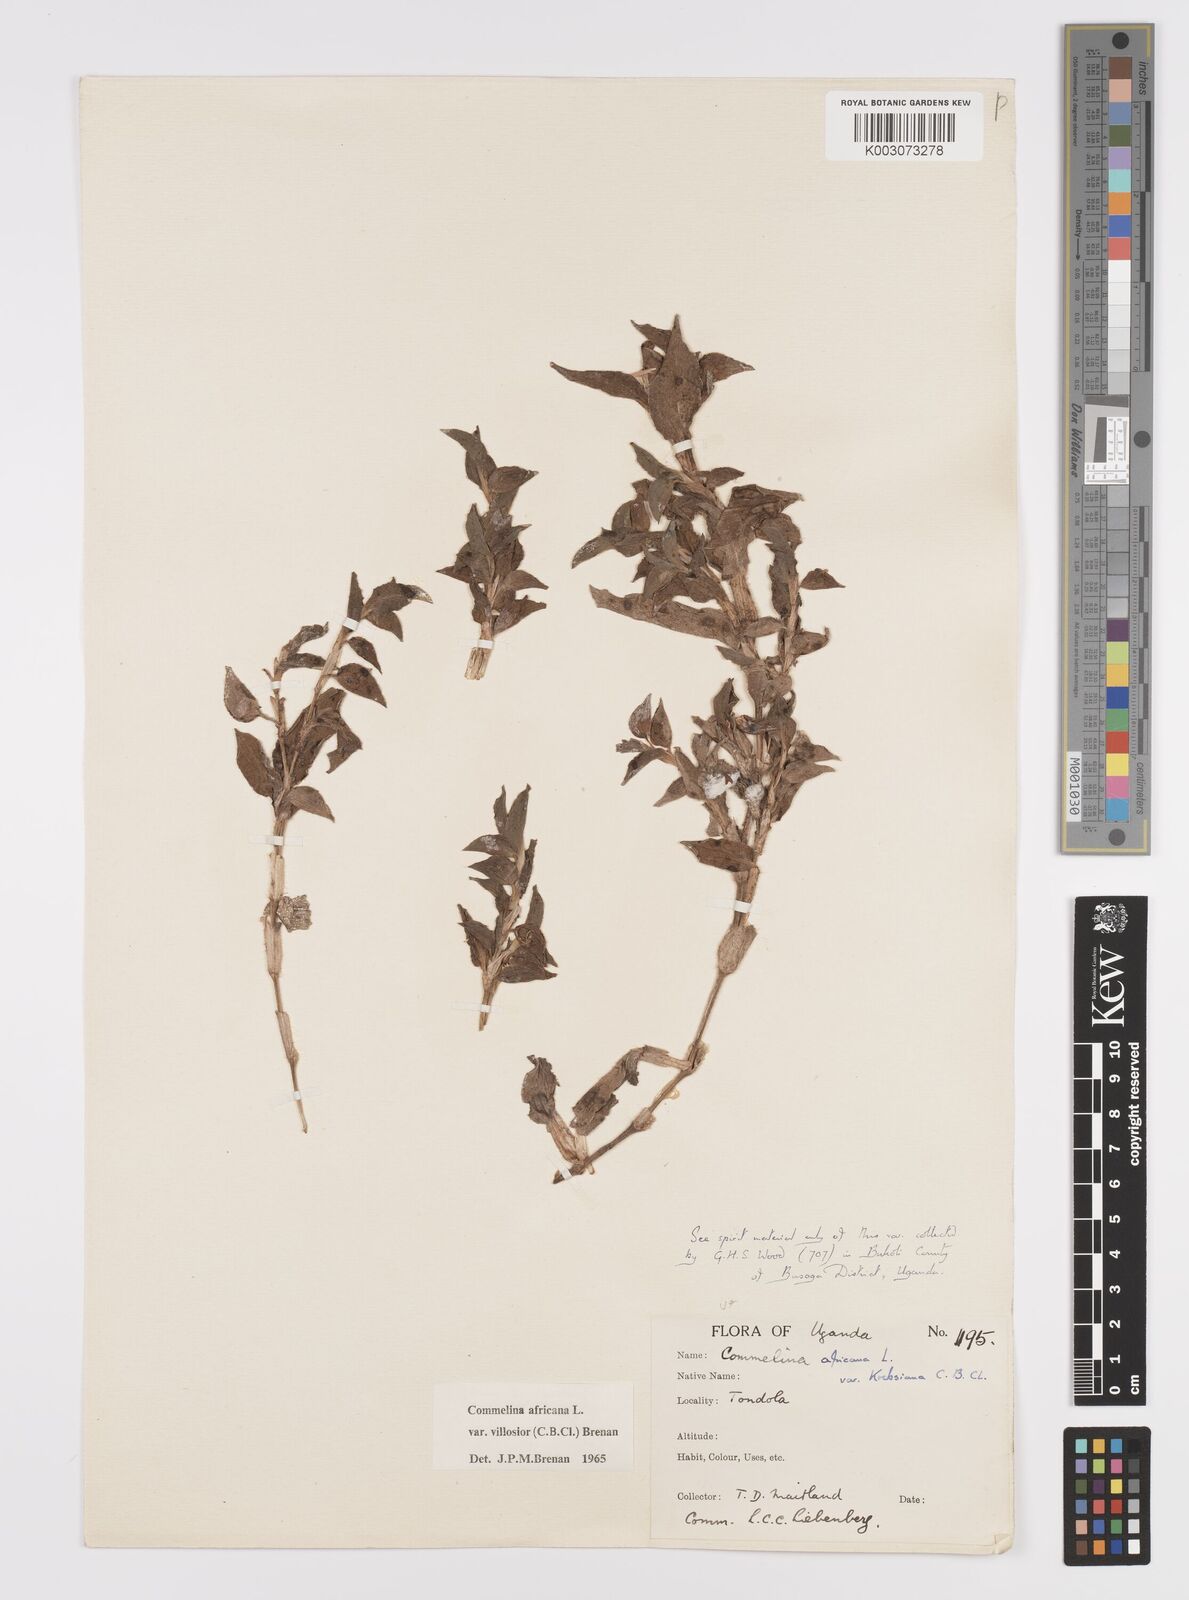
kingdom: Plantae
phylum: Tracheophyta
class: Liliopsida
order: Commelinales
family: Commelinaceae
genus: Commelina
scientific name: Commelina africana
